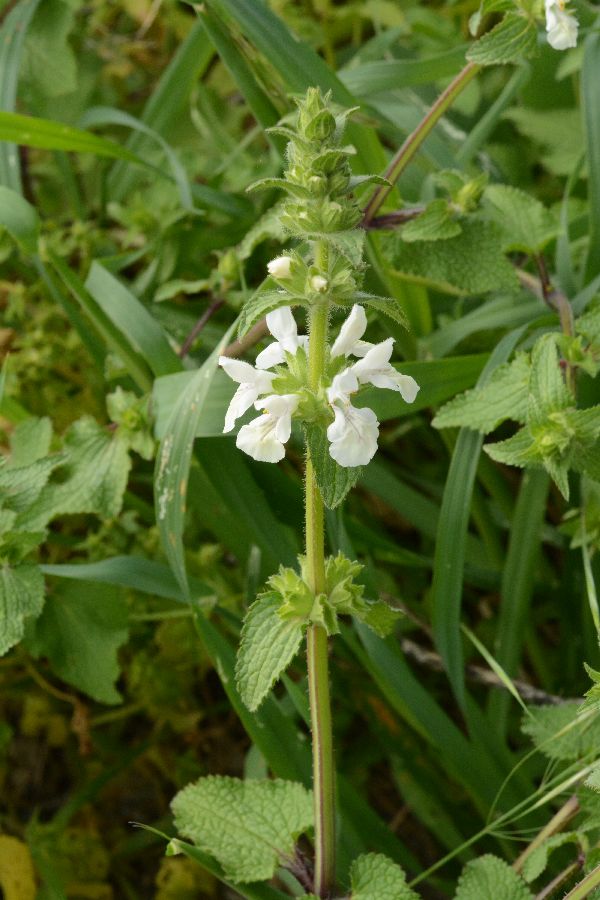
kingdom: Plantae
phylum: Tracheophyta
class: Magnoliopsida
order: Lamiales
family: Lamiaceae
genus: Stachys
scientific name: Stachys spinulosa
